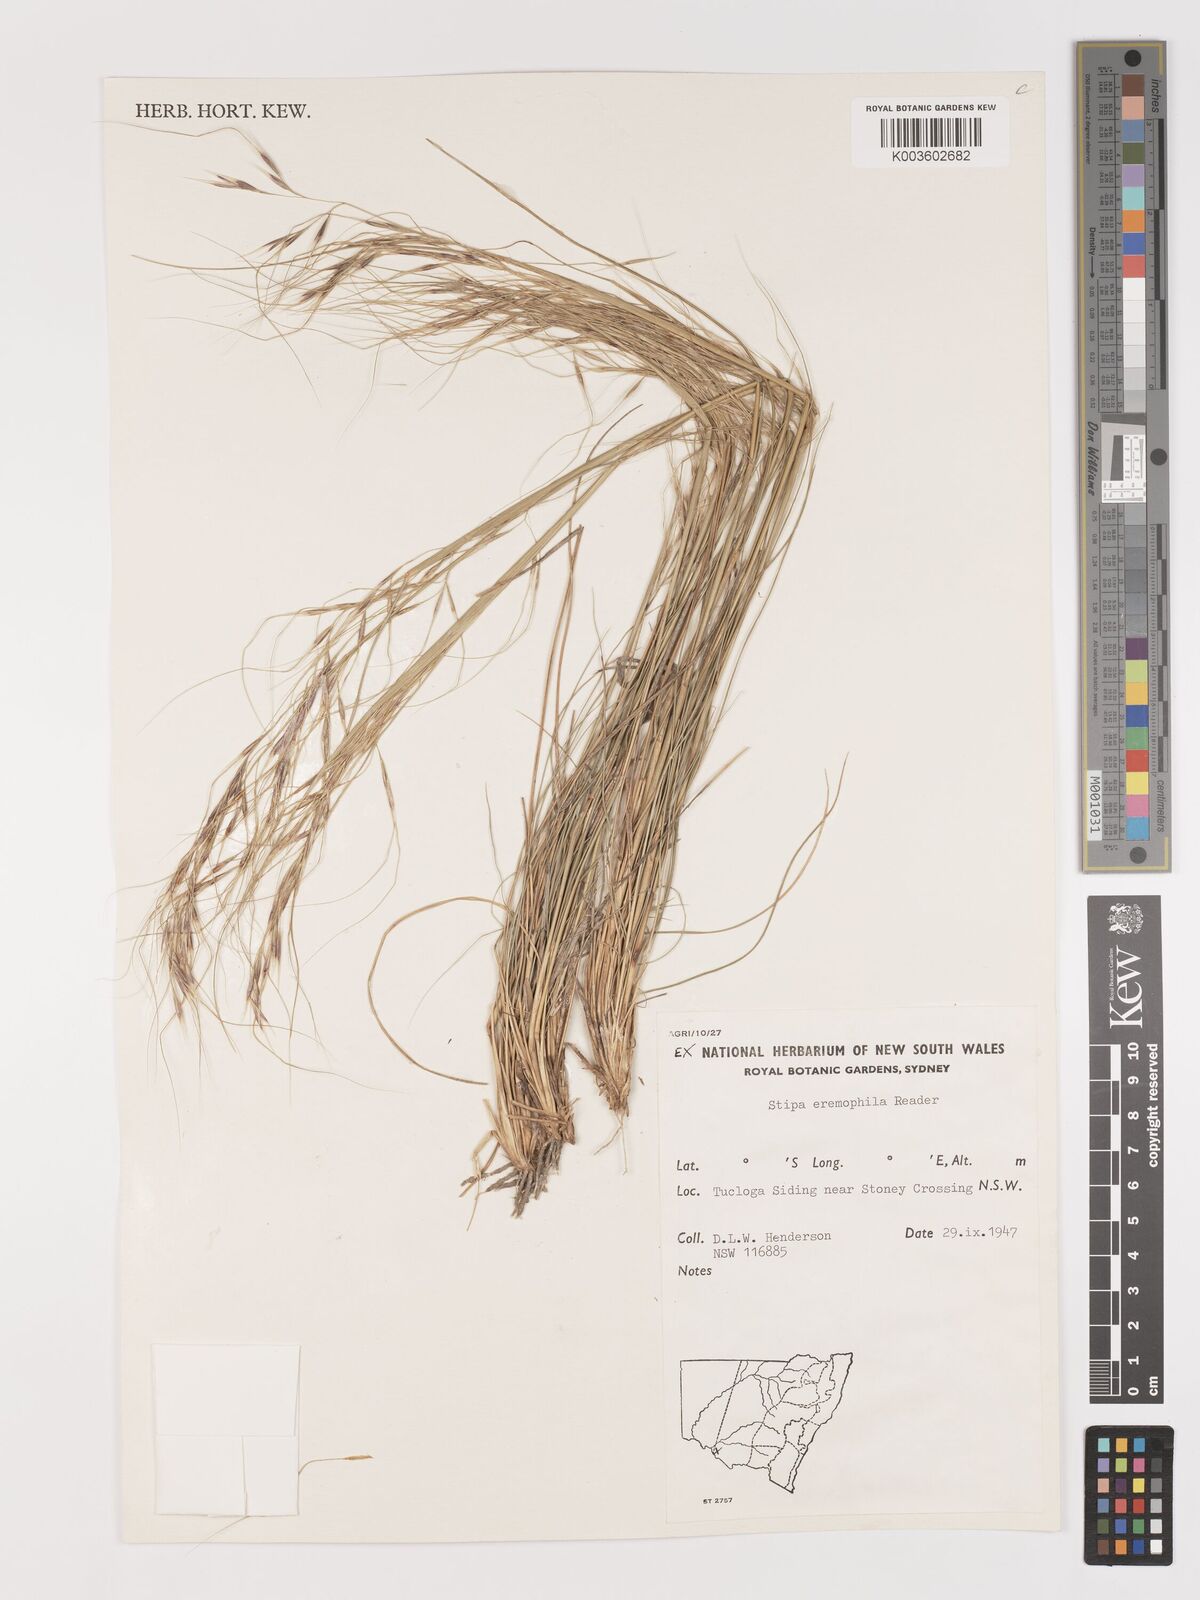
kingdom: Plantae
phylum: Tracheophyta
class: Liliopsida
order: Poales
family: Poaceae
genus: Austrostipa
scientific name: Austrostipa eremophila
